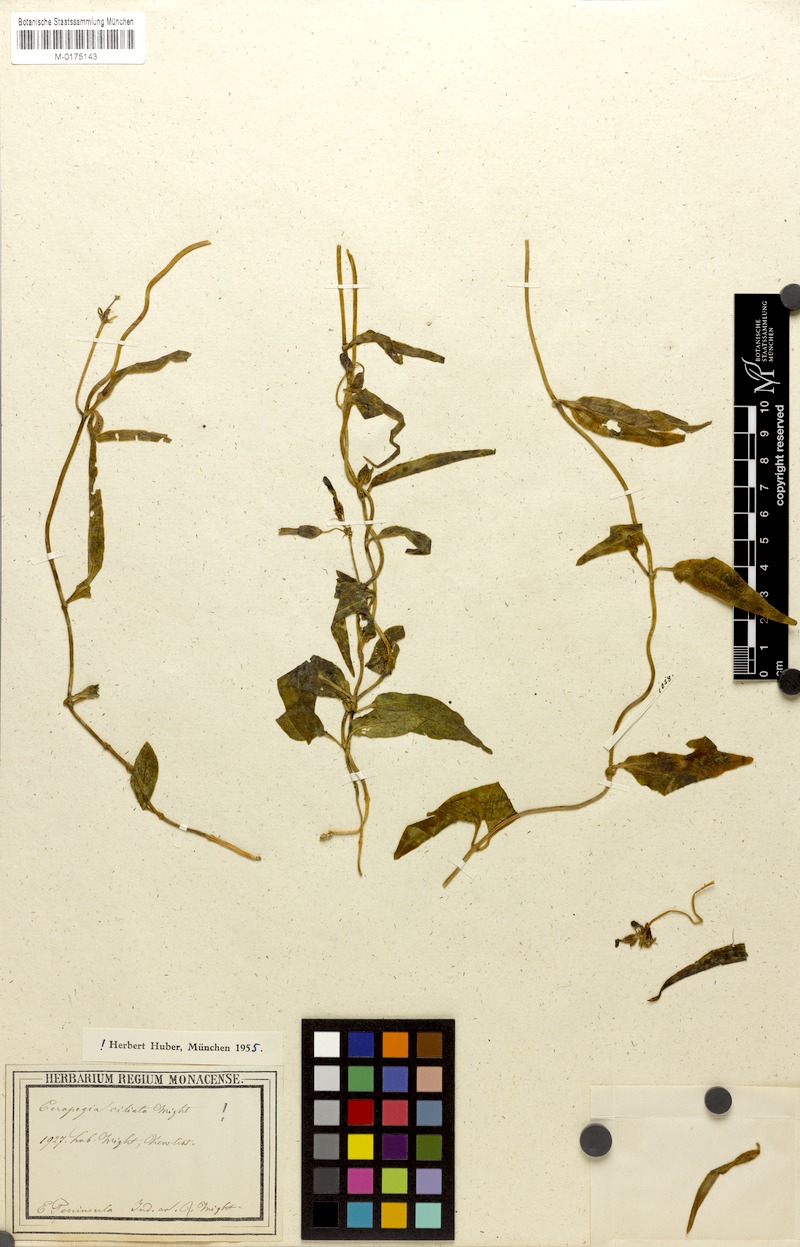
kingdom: Plantae
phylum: Tracheophyta
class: Magnoliopsida
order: Gentianales
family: Apocynaceae
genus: Ceropegia
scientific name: Ceropegia ciliata
